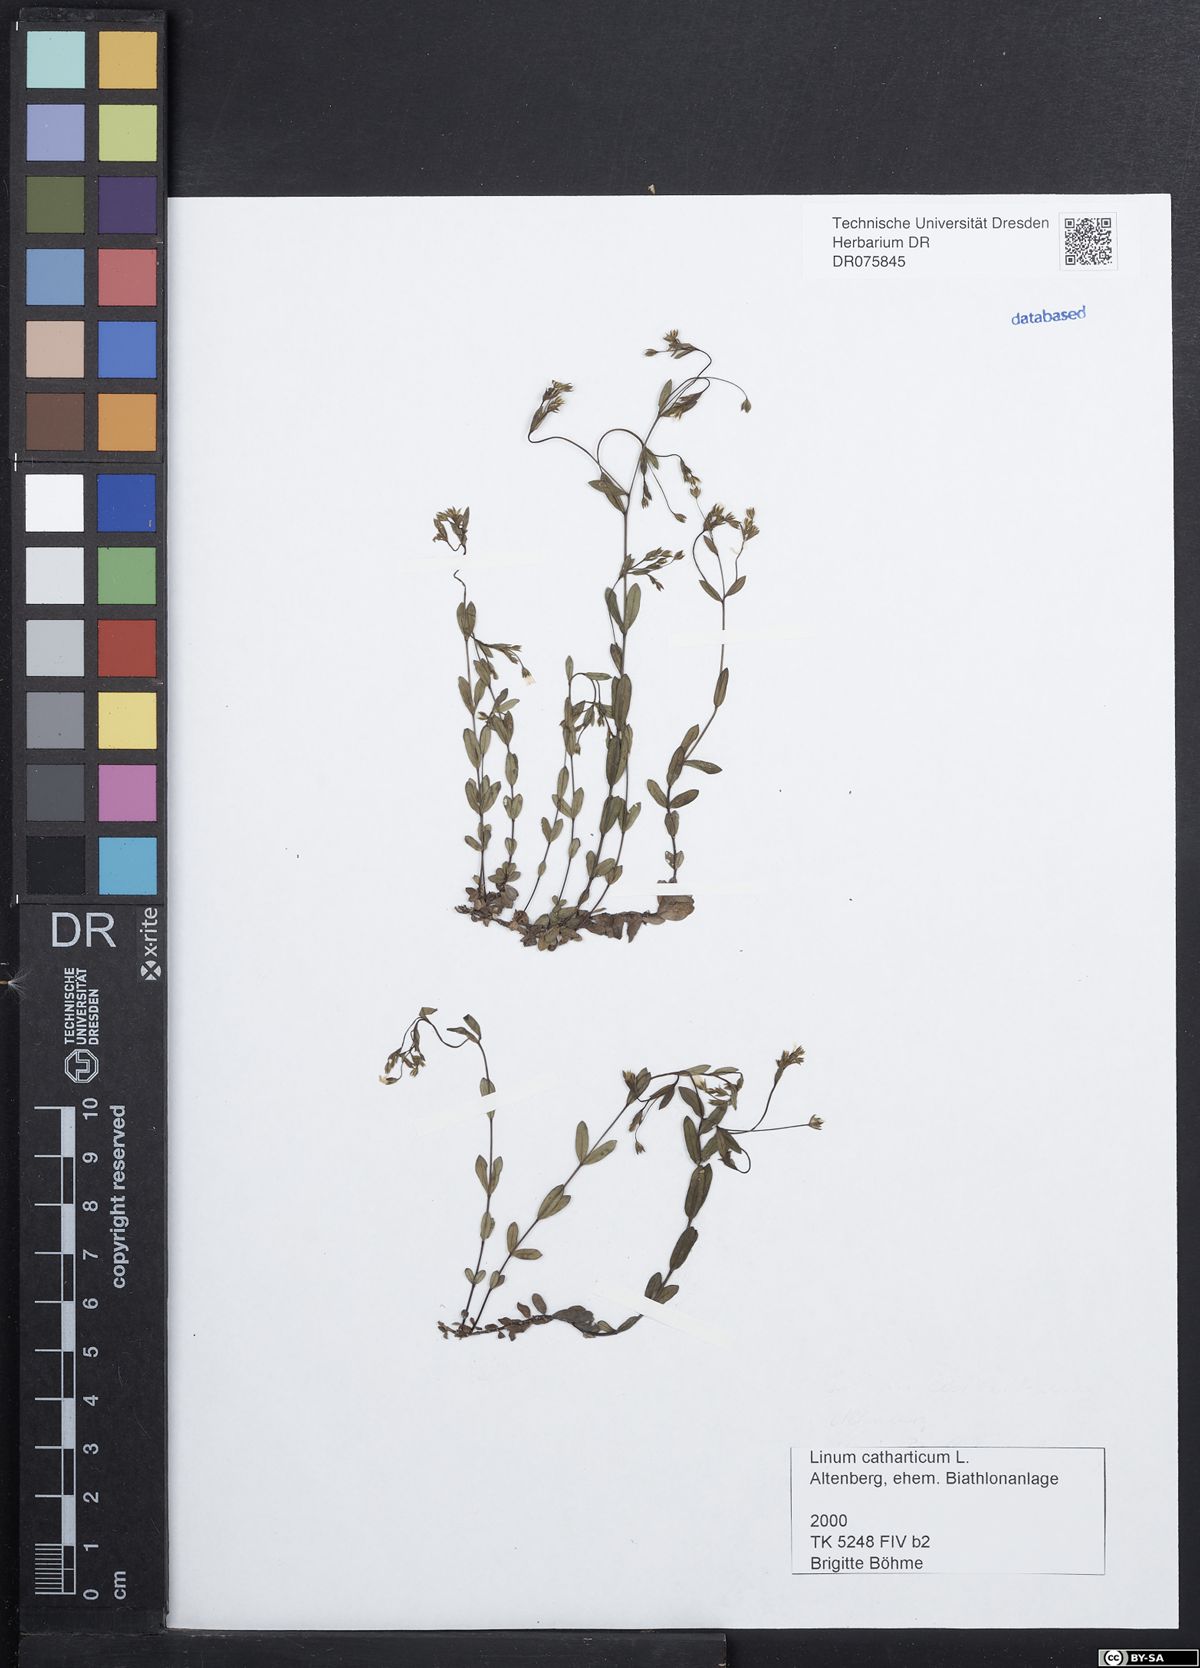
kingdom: Plantae
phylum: Tracheophyta
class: Magnoliopsida
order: Malpighiales
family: Linaceae
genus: Linum
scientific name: Linum catharticum
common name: Fairy flax
